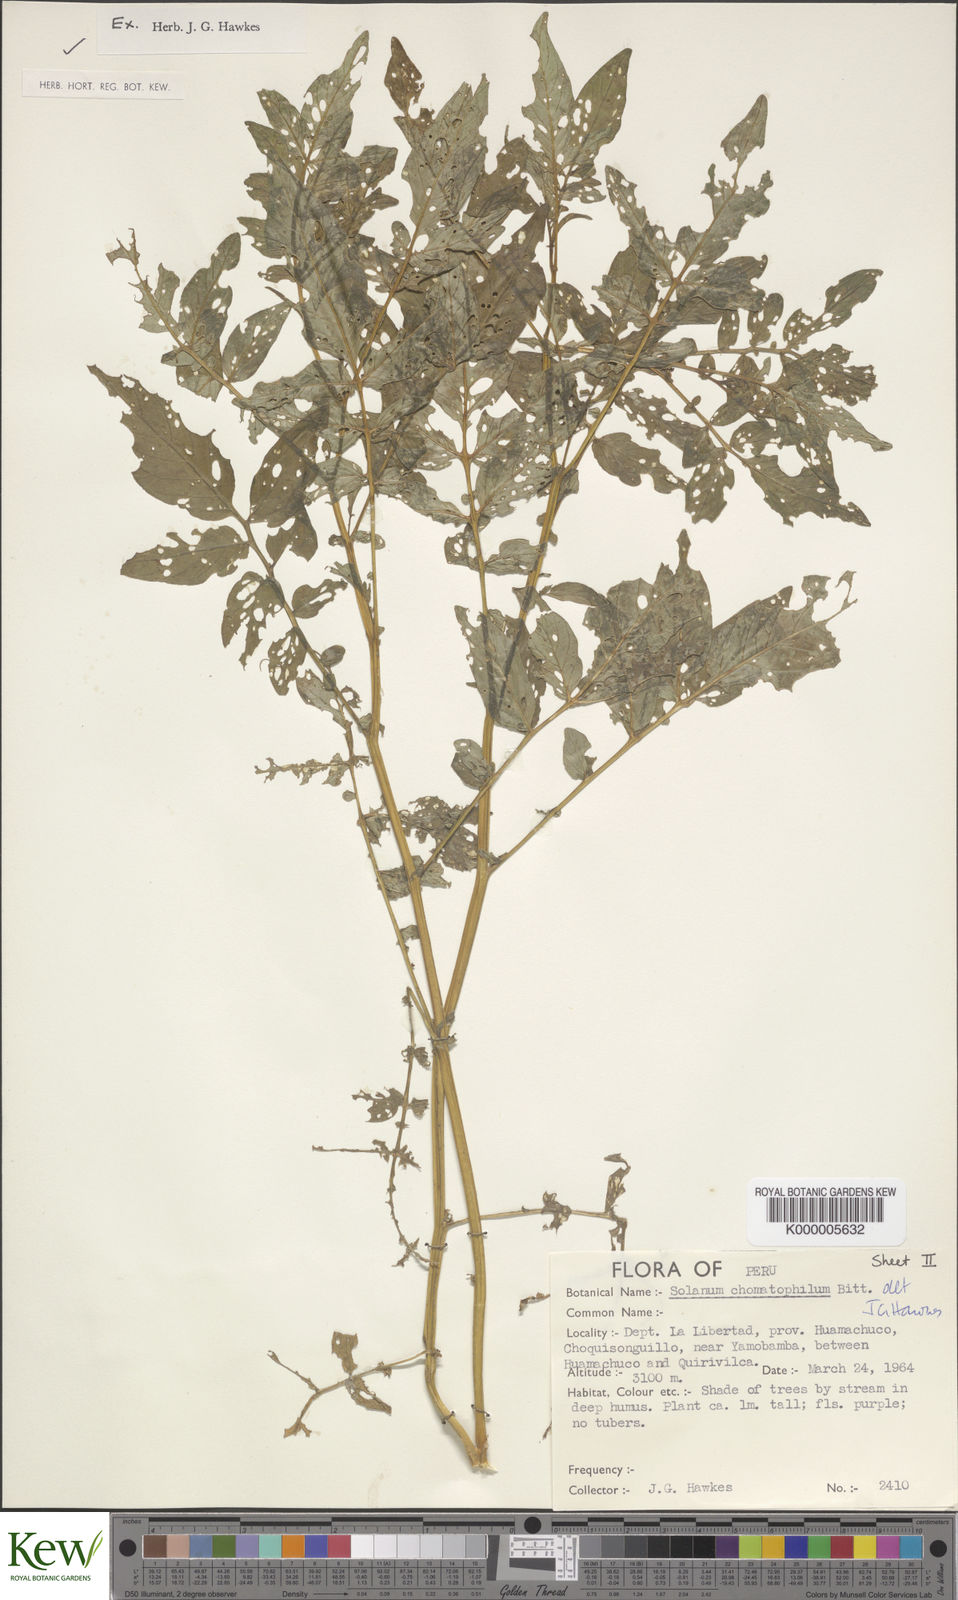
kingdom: Plantae
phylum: Tracheophyta
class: Magnoliopsida
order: Solanales
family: Solanaceae
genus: Solanum
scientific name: Solanum chomatophilum
